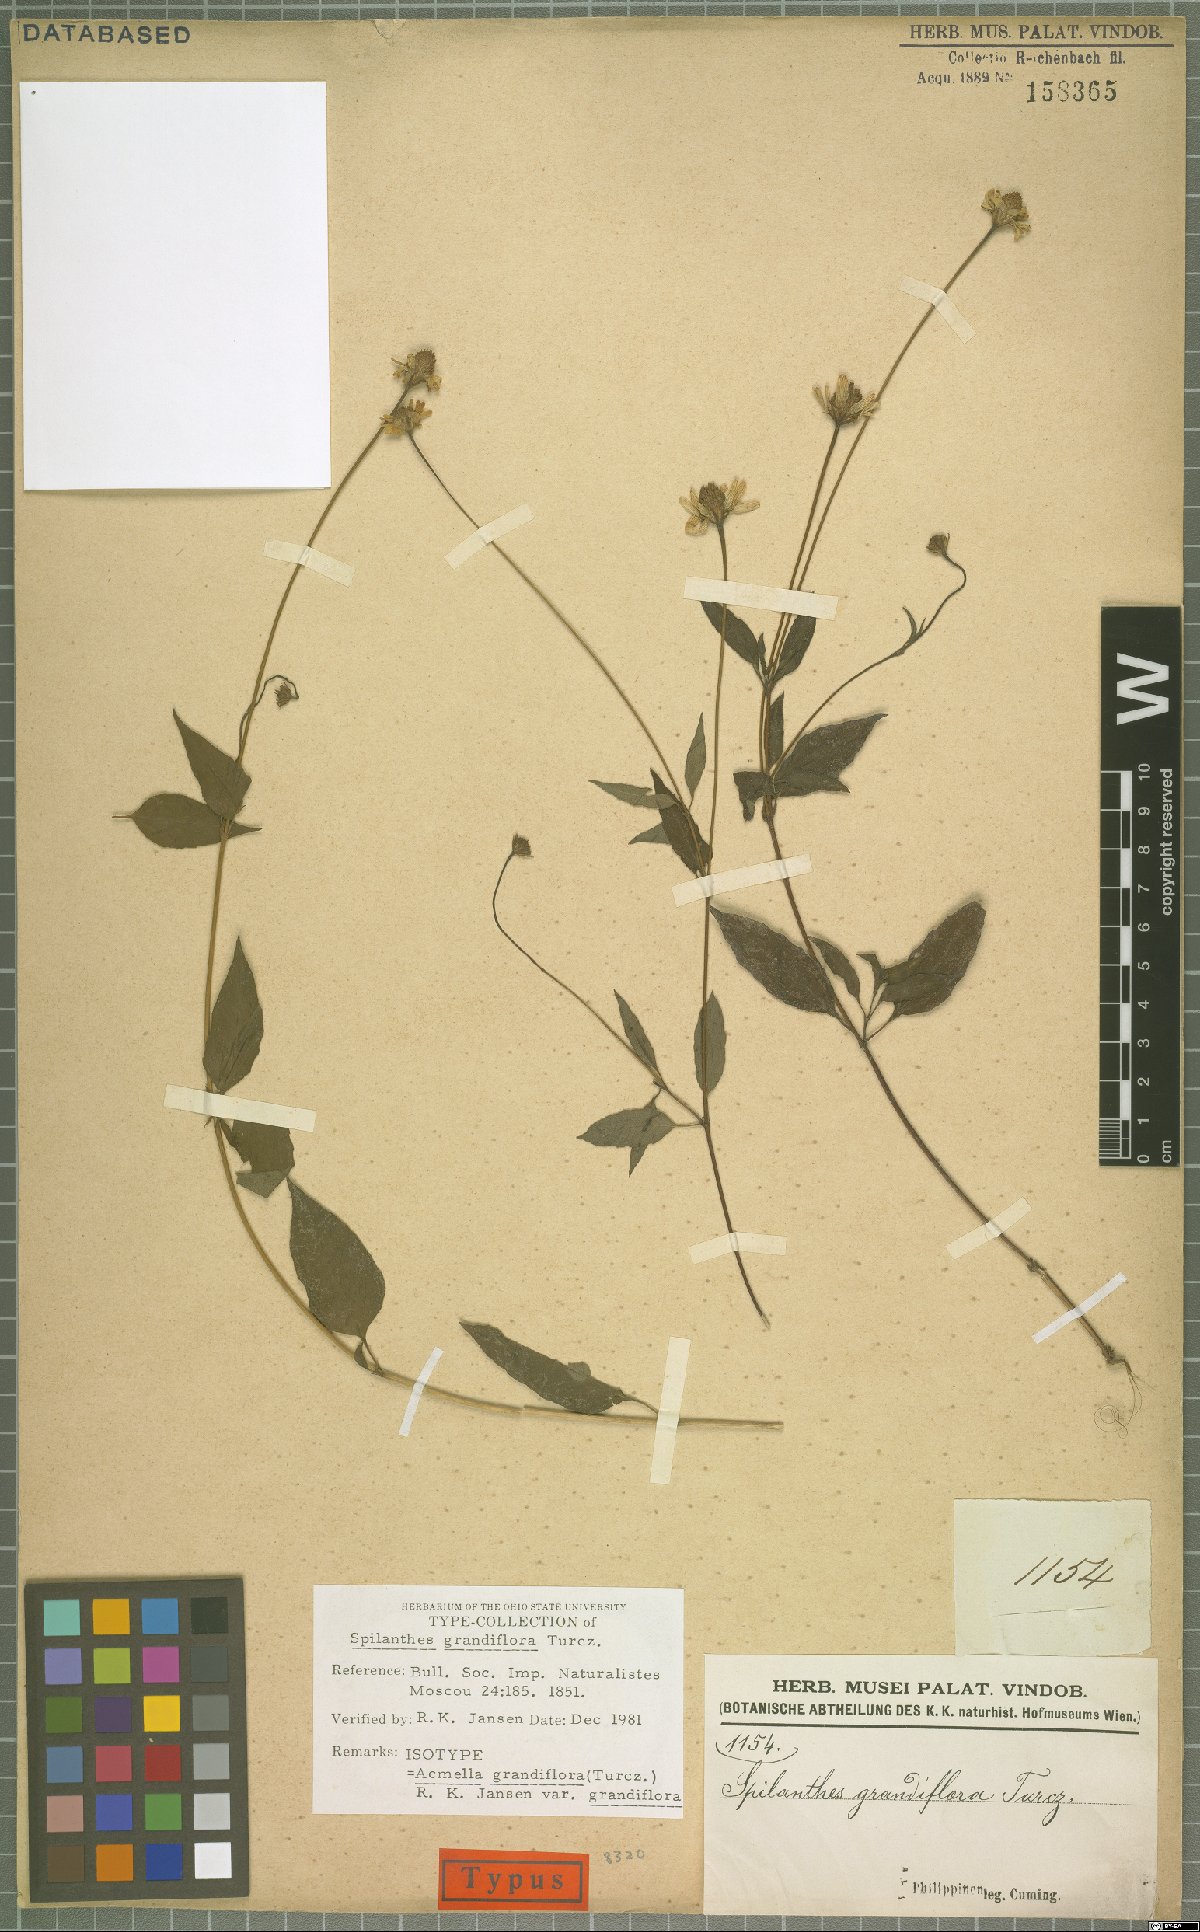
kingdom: Plantae
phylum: Tracheophyta
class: Magnoliopsida
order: Asterales
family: Asteraceae
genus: Acmella
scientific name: Acmella grandiflora
